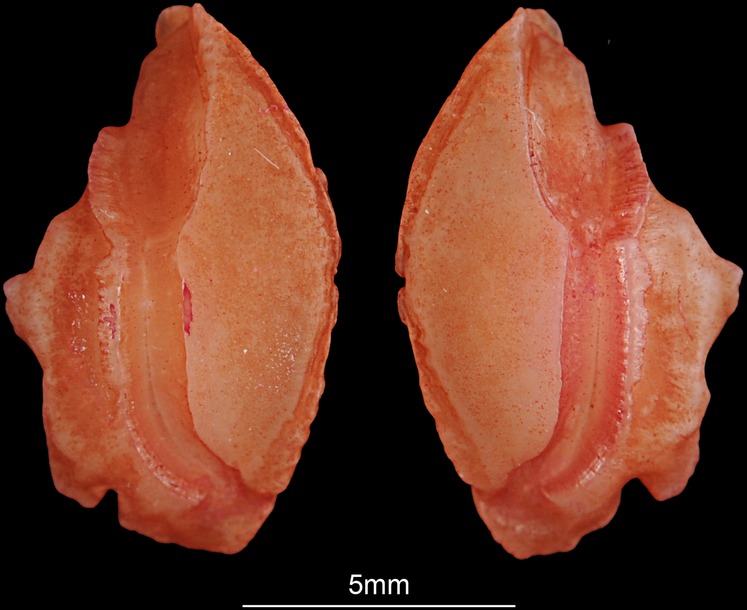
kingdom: Animalia
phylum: Chordata
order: Perciformes
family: Sparidae
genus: Pagellus
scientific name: Pagellus natalensis
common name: Natal pandora
